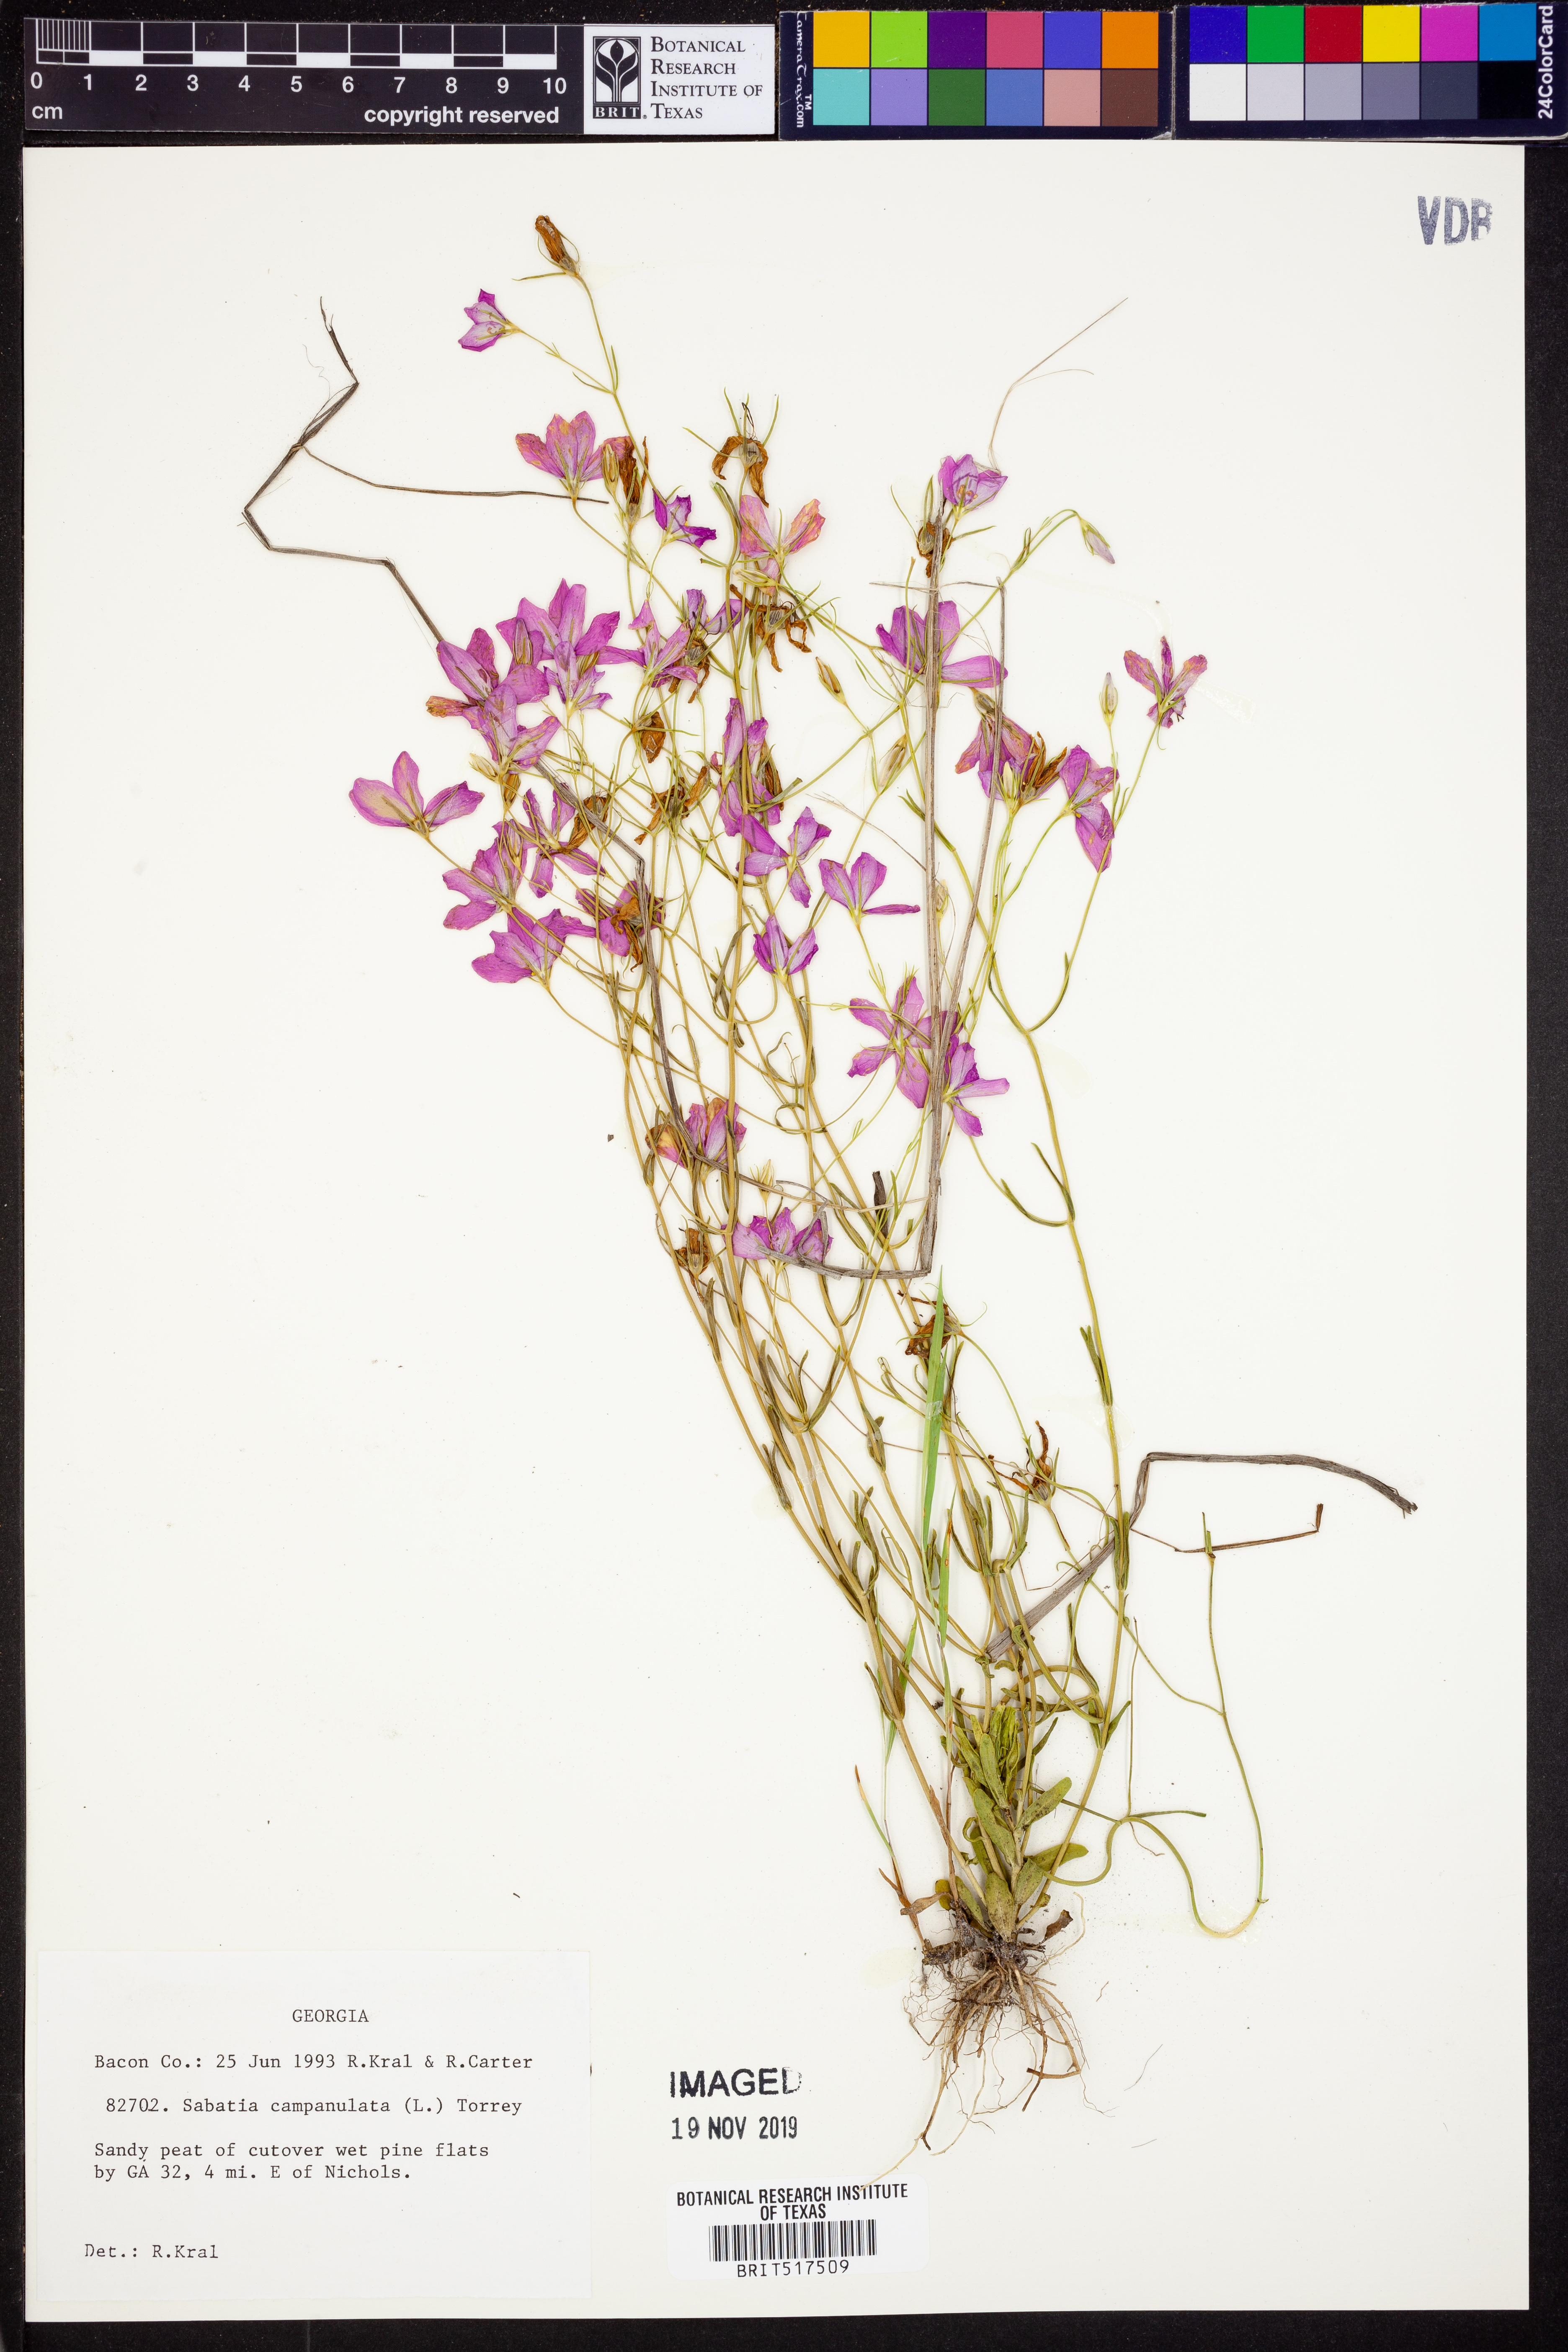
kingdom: Plantae
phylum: Tracheophyta
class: Magnoliopsida
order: Gentianales
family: Gentianaceae
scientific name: Gentianaceae
